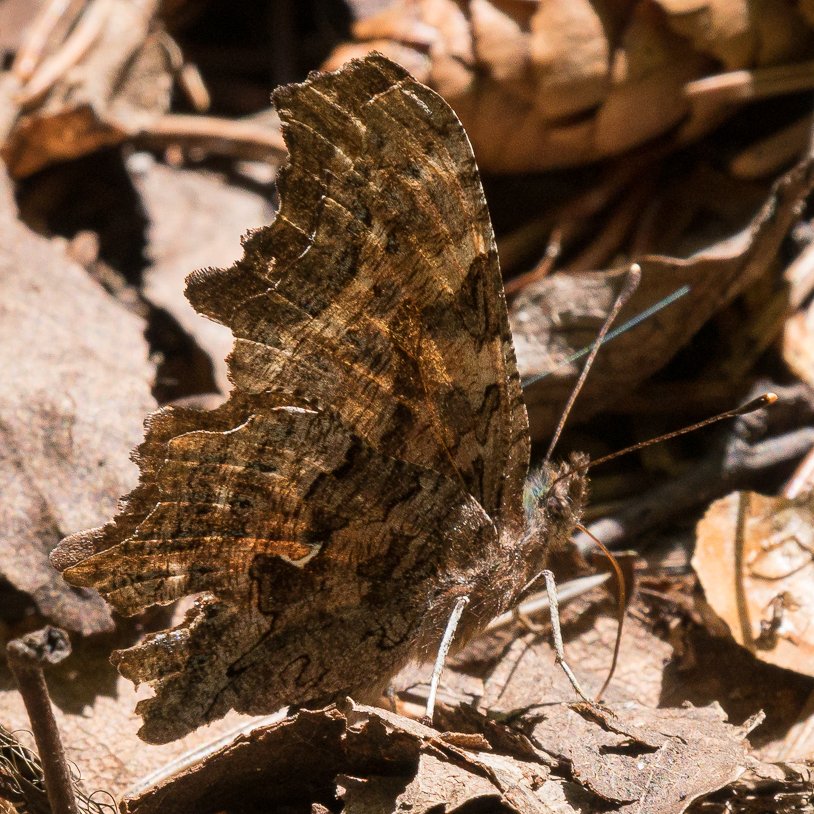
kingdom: Animalia
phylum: Arthropoda
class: Insecta
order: Lepidoptera
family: Nymphalidae
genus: Polygonia
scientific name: Polygonia faunus
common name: Green Comma
